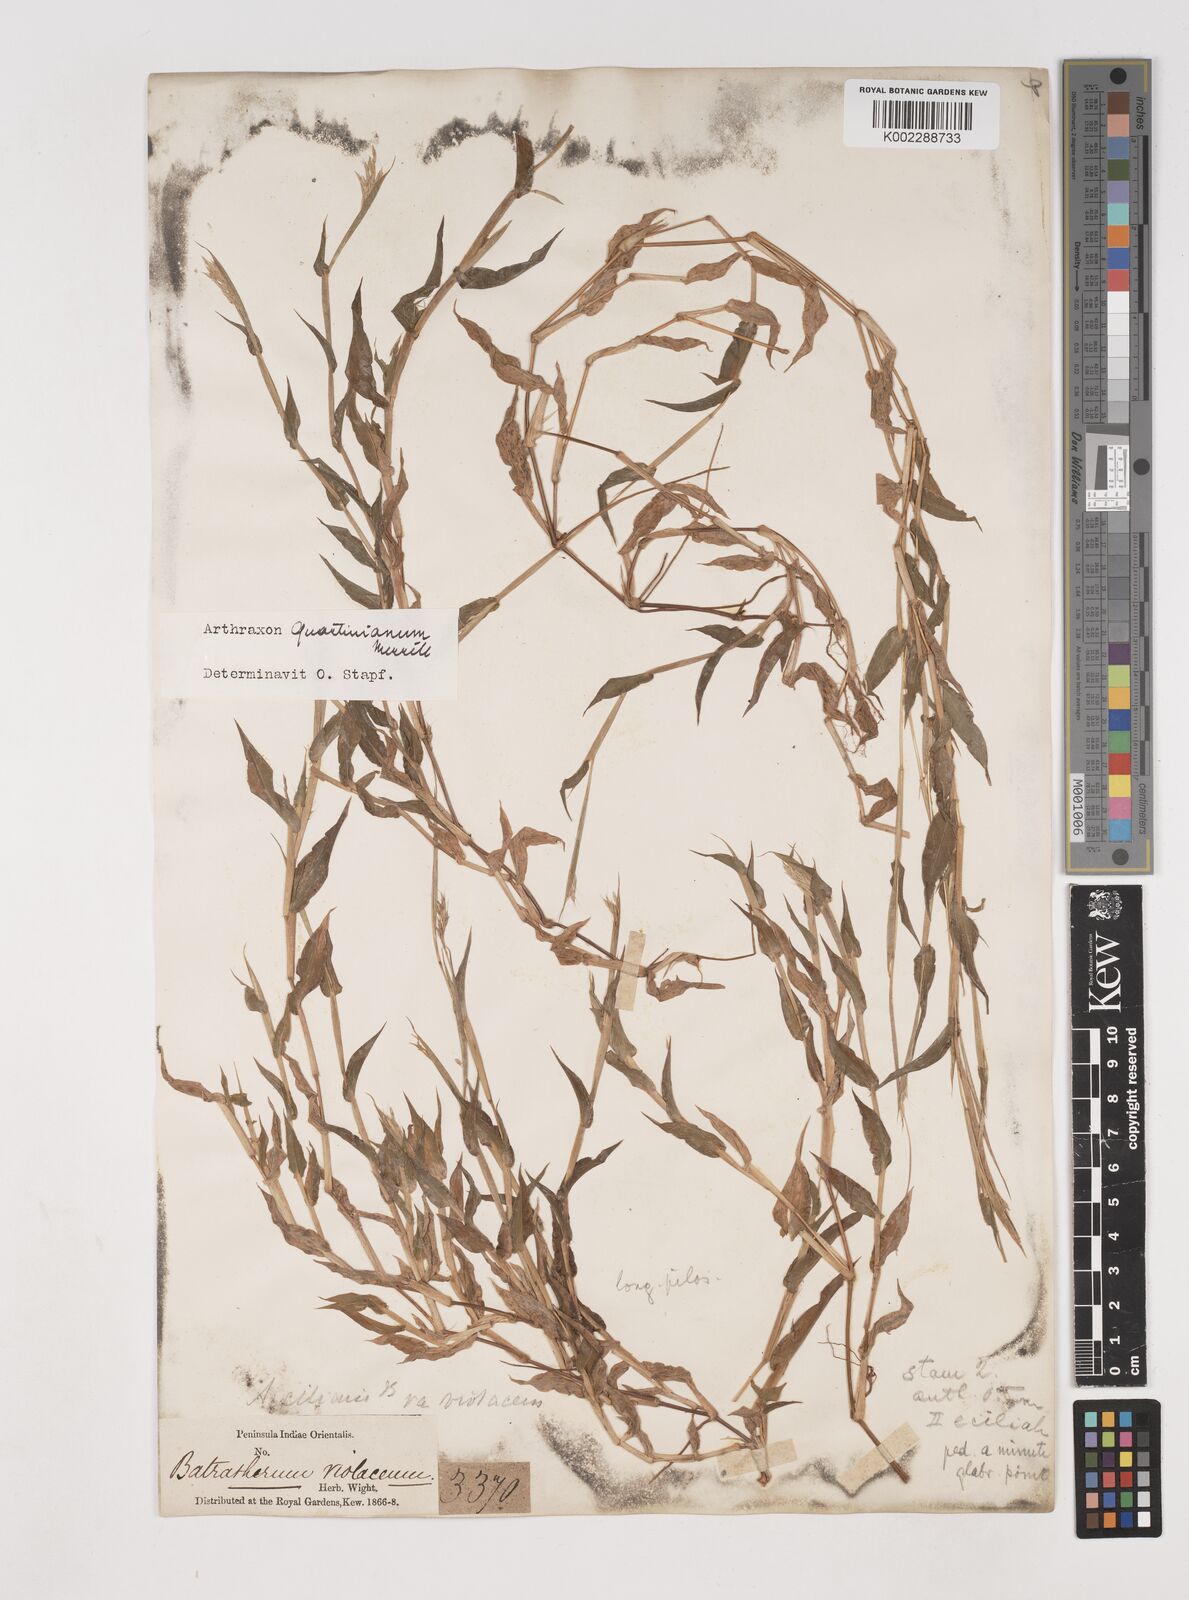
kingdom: Plantae
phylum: Tracheophyta
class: Liliopsida
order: Poales
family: Poaceae
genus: Arthraxon
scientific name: Arthraxon hispidus
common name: Small carpgrass
